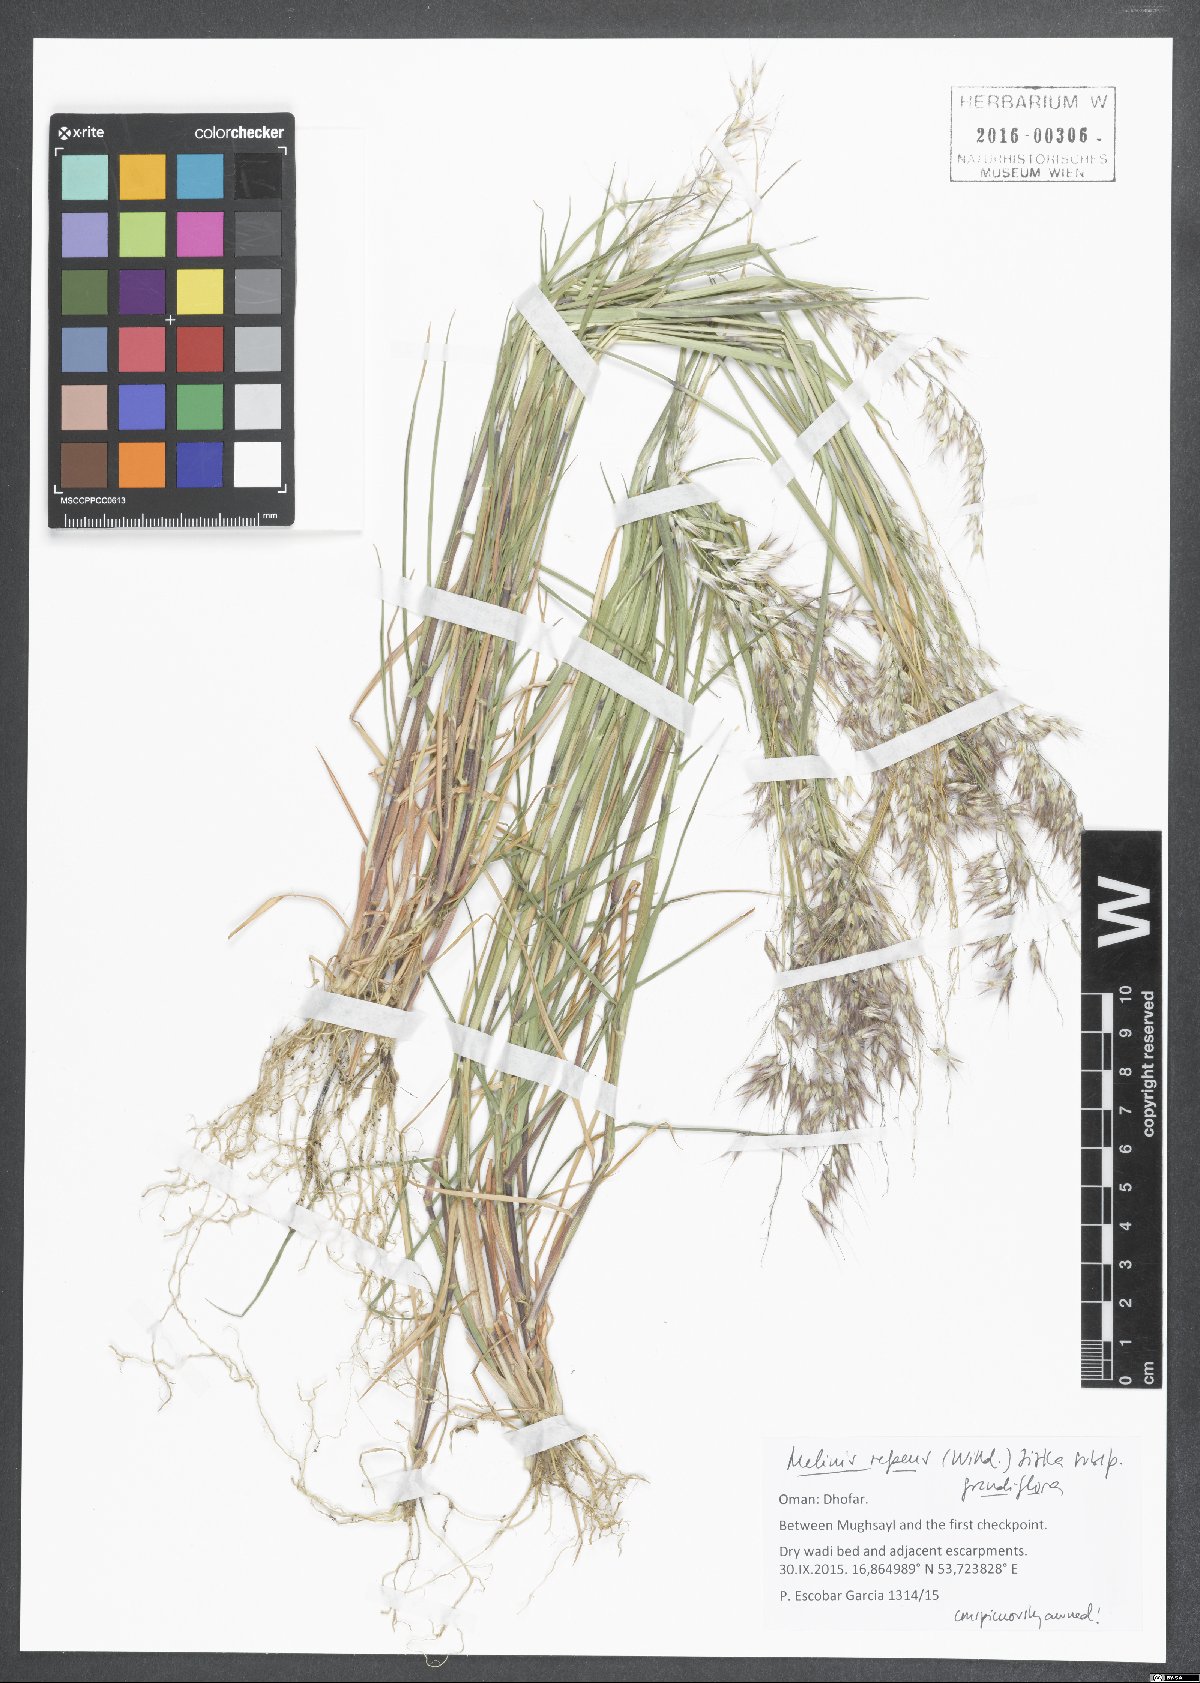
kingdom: Plantae
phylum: Tracheophyta
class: Liliopsida
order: Poales
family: Poaceae
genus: Melinis
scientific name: Melinis repens
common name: Rose natal grass
